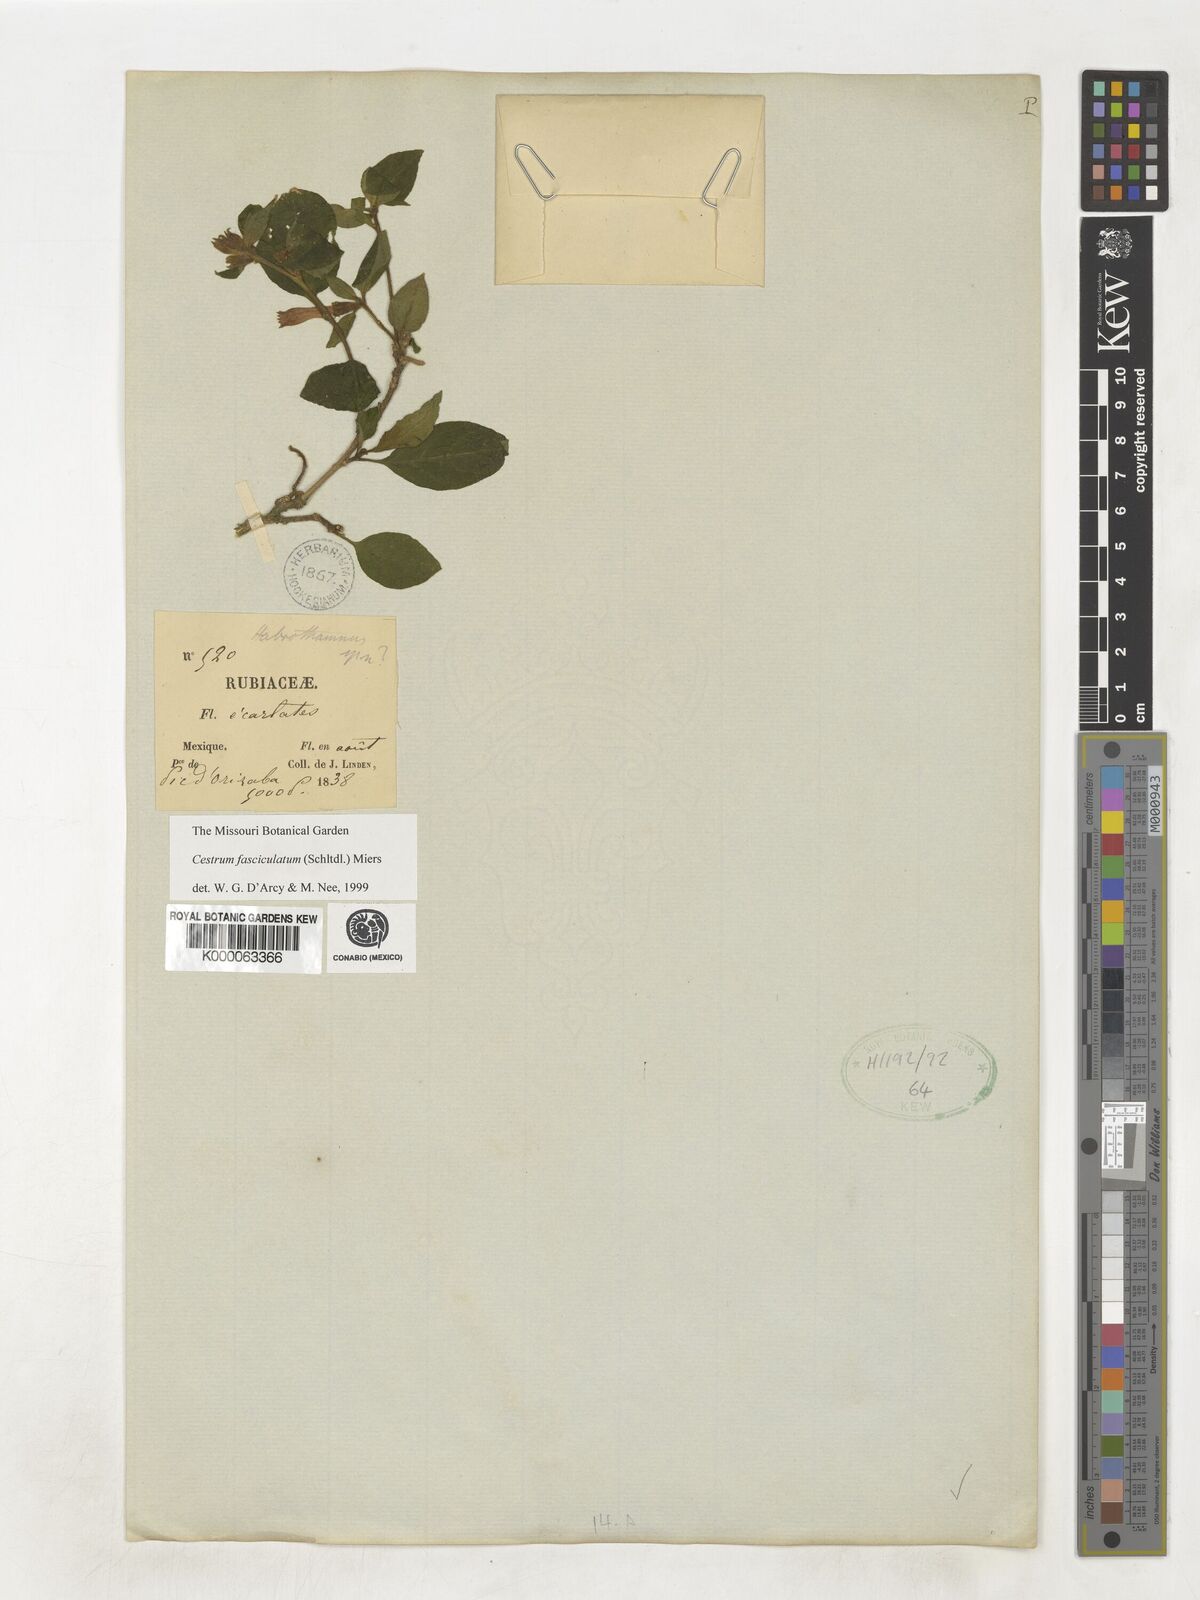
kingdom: Plantae
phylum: Tracheophyta
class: Magnoliopsida
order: Solanales
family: Solanaceae
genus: Cestrum
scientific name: Cestrum fasciculatum
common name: Early jessamine
